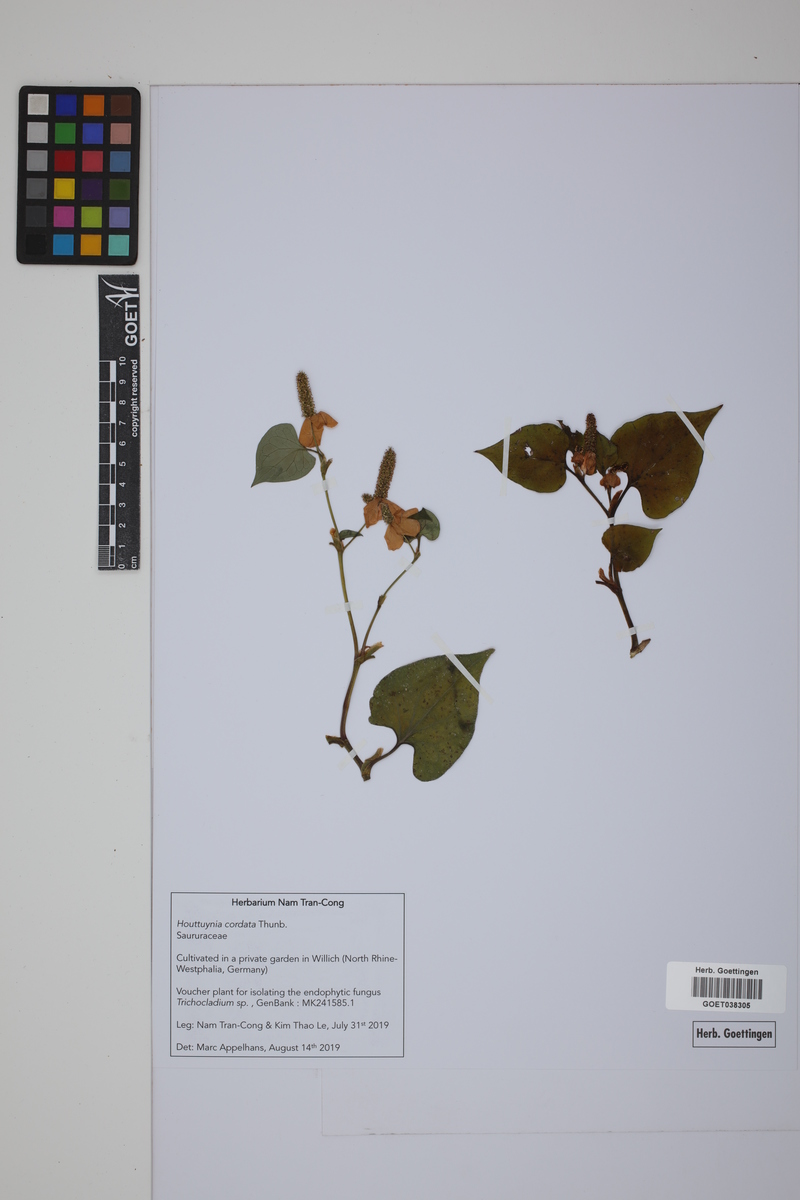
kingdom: Plantae
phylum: Tracheophyta
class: Magnoliopsida
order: Piperales
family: Saururaceae
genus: Houttuynia
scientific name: Houttuynia cordata
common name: Chameleon
